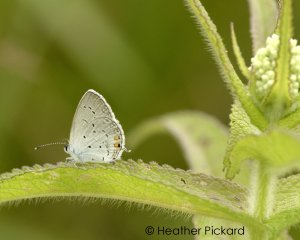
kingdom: Animalia
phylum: Arthropoda
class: Insecta
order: Lepidoptera
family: Lycaenidae
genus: Elkalyce
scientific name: Elkalyce comyntas
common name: Eastern Tailed-Blue
